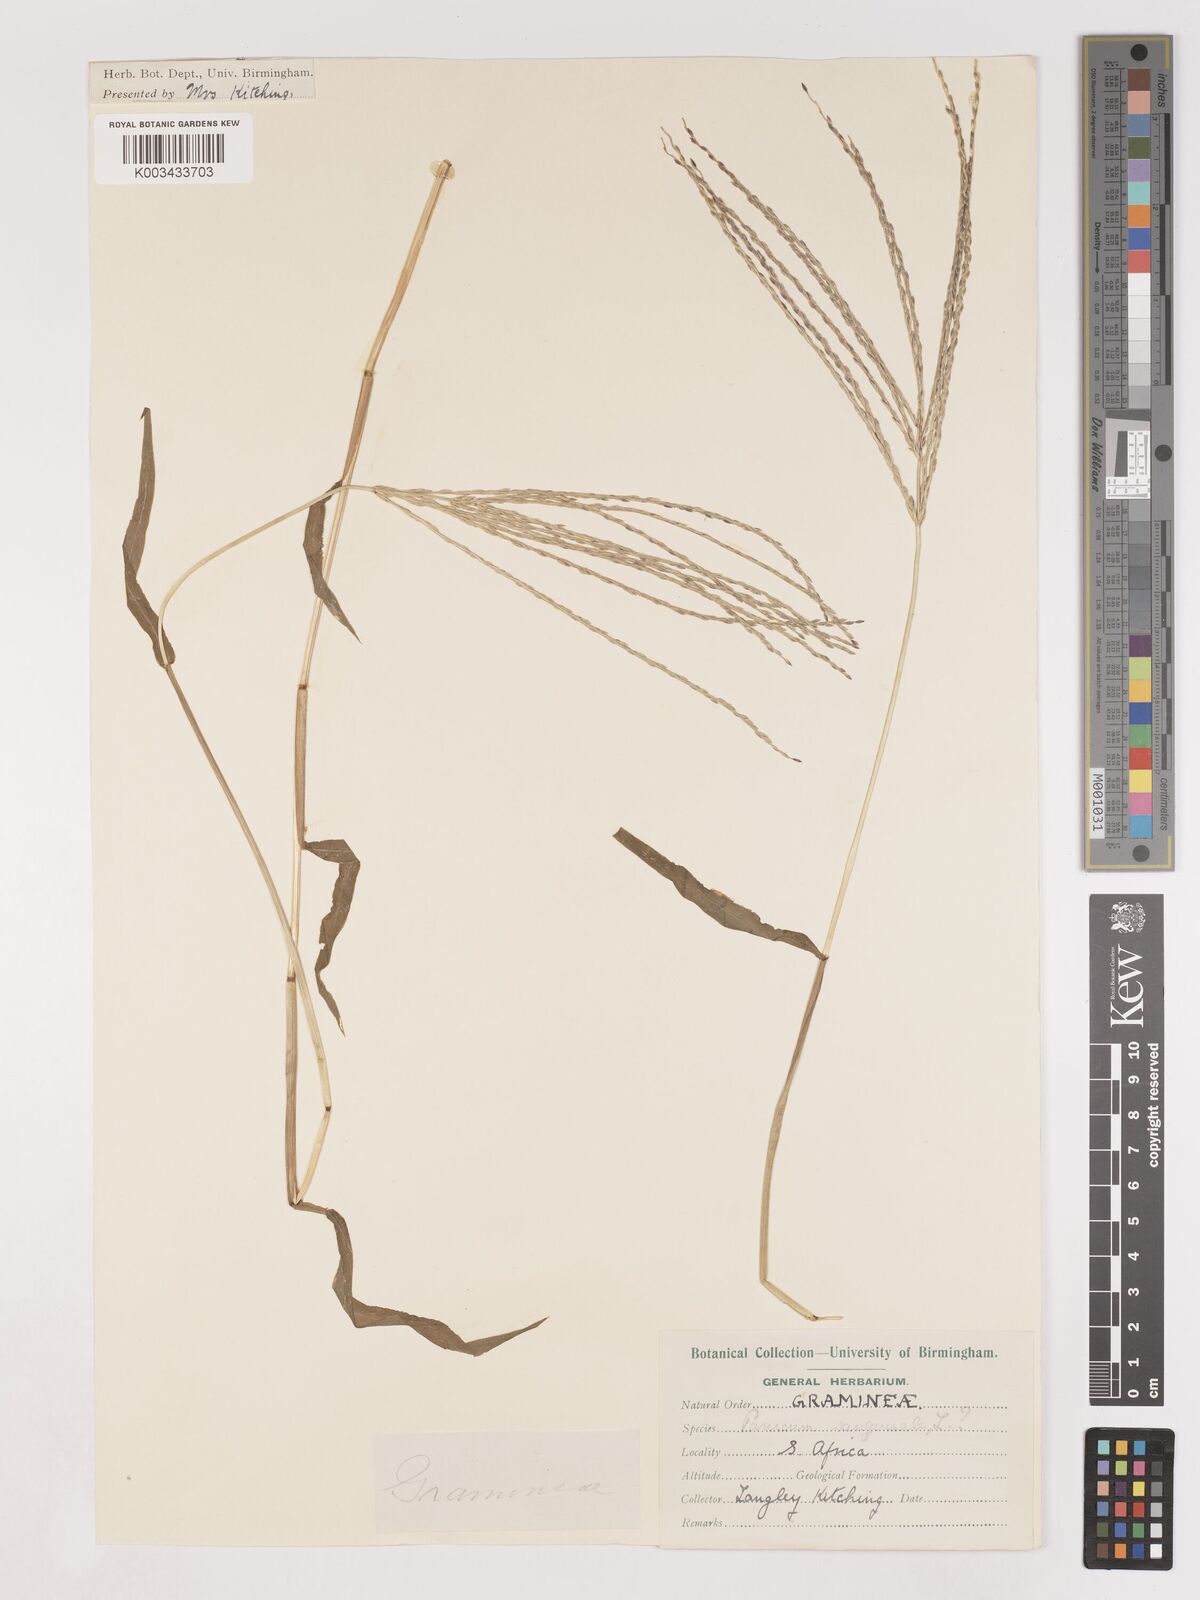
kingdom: Plantae
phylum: Tracheophyta
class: Liliopsida
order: Poales
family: Poaceae
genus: Digitaria
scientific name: Digitaria sanguinalis
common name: Hairy crabgrass
